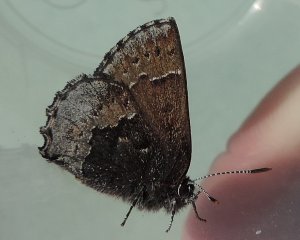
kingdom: Animalia
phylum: Arthropoda
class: Insecta
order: Lepidoptera
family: Lycaenidae
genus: Callophrys
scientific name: Callophrys polios
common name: Hoary Elfin
